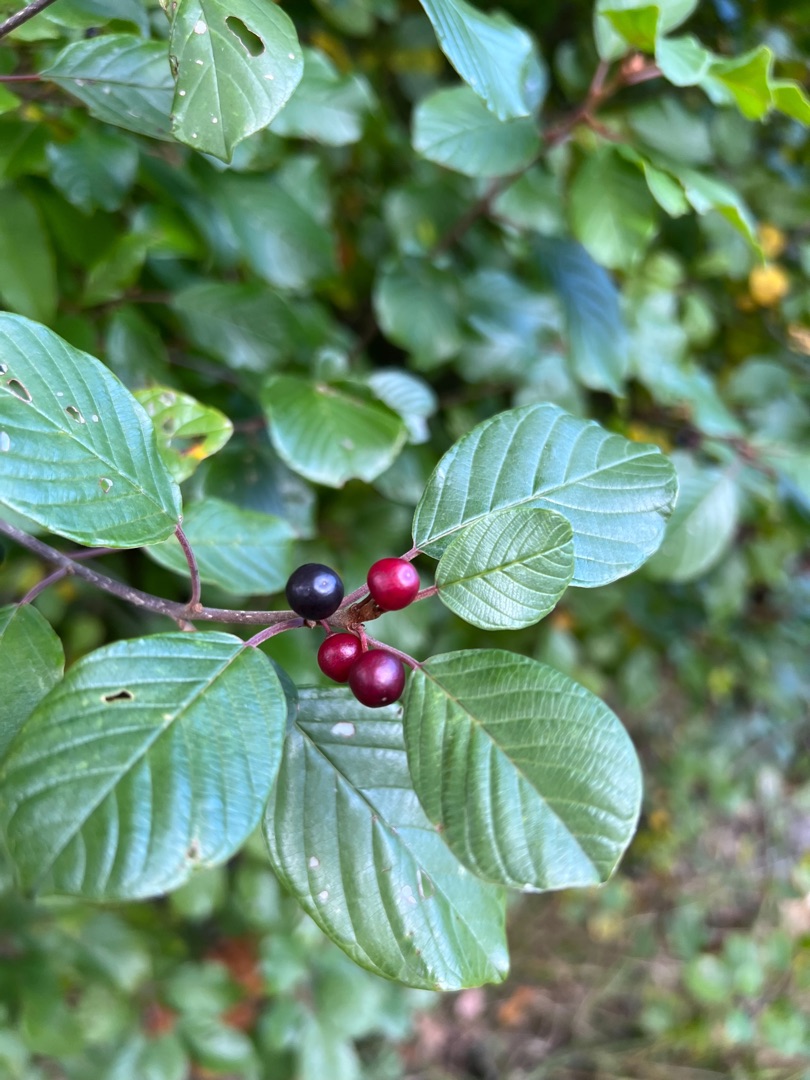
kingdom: Plantae
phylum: Tracheophyta
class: Magnoliopsida
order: Rosales
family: Rhamnaceae
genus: Frangula
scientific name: Frangula alnus
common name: Tørst
